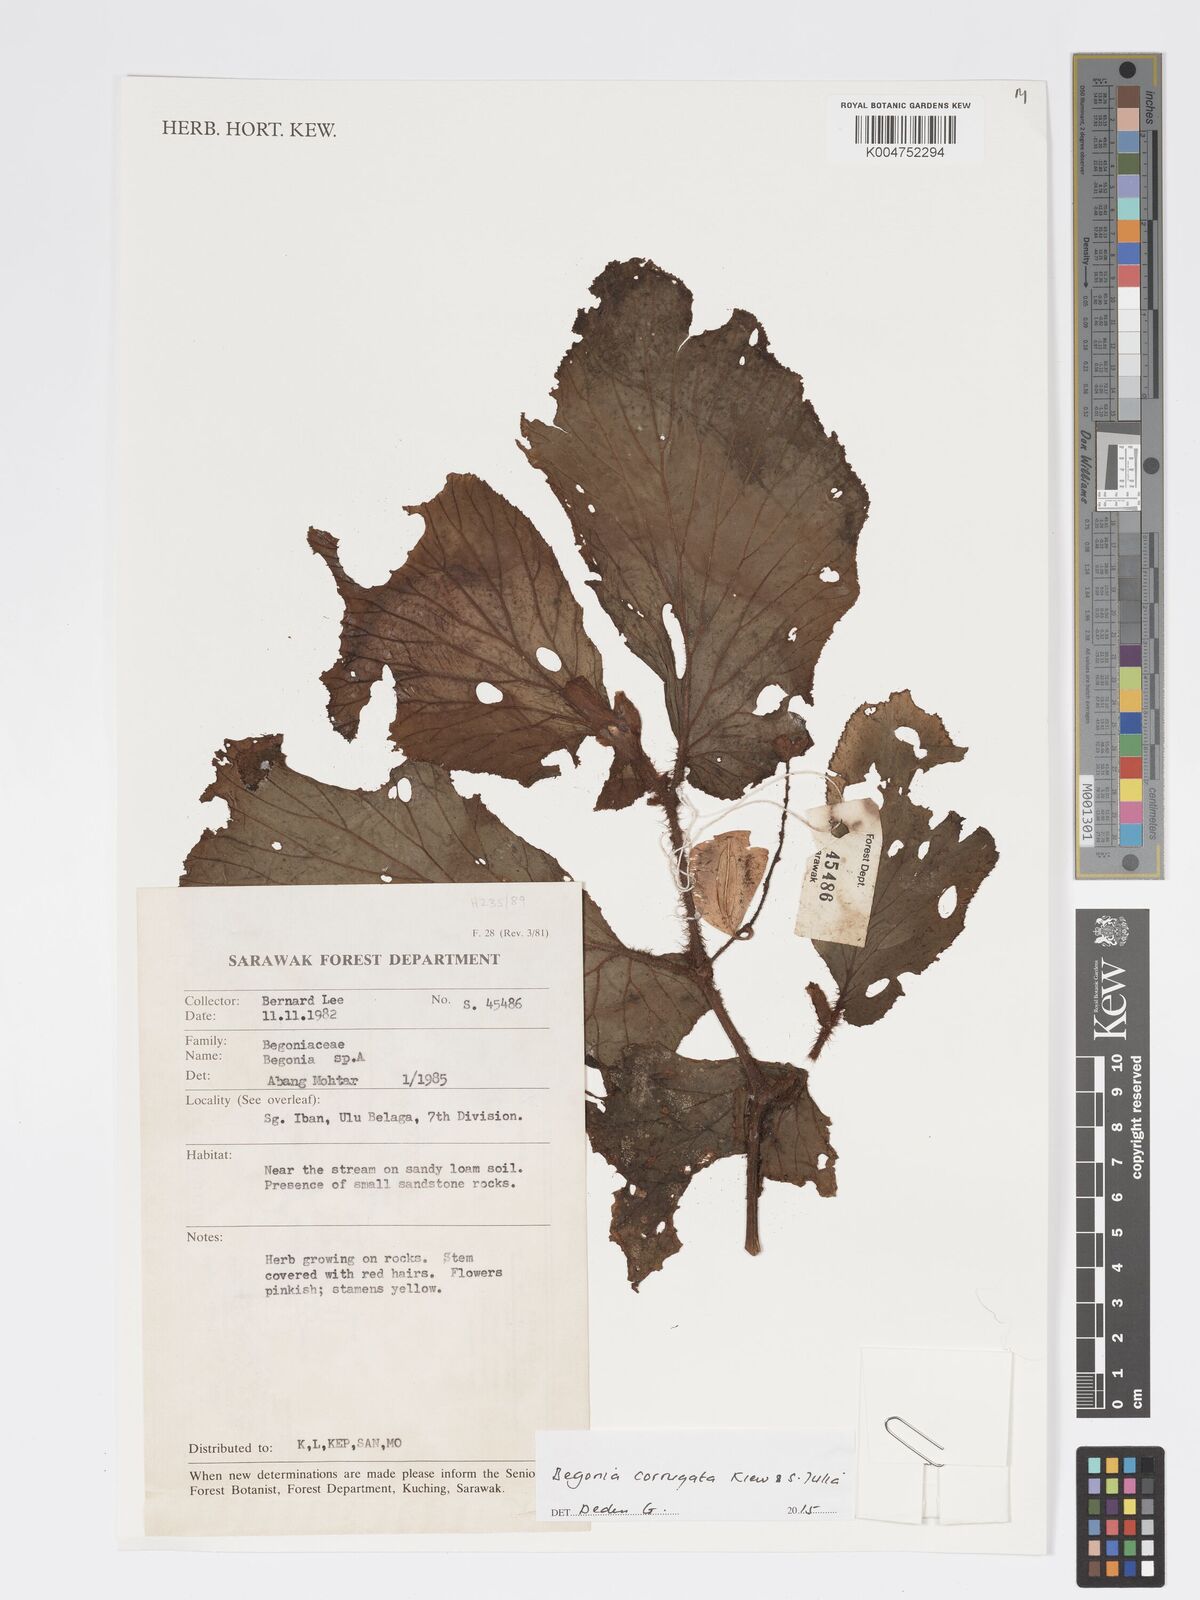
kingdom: Plantae
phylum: Tracheophyta
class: Magnoliopsida
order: Cucurbitales
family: Begoniaceae
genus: Begonia
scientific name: Begonia corrugata
